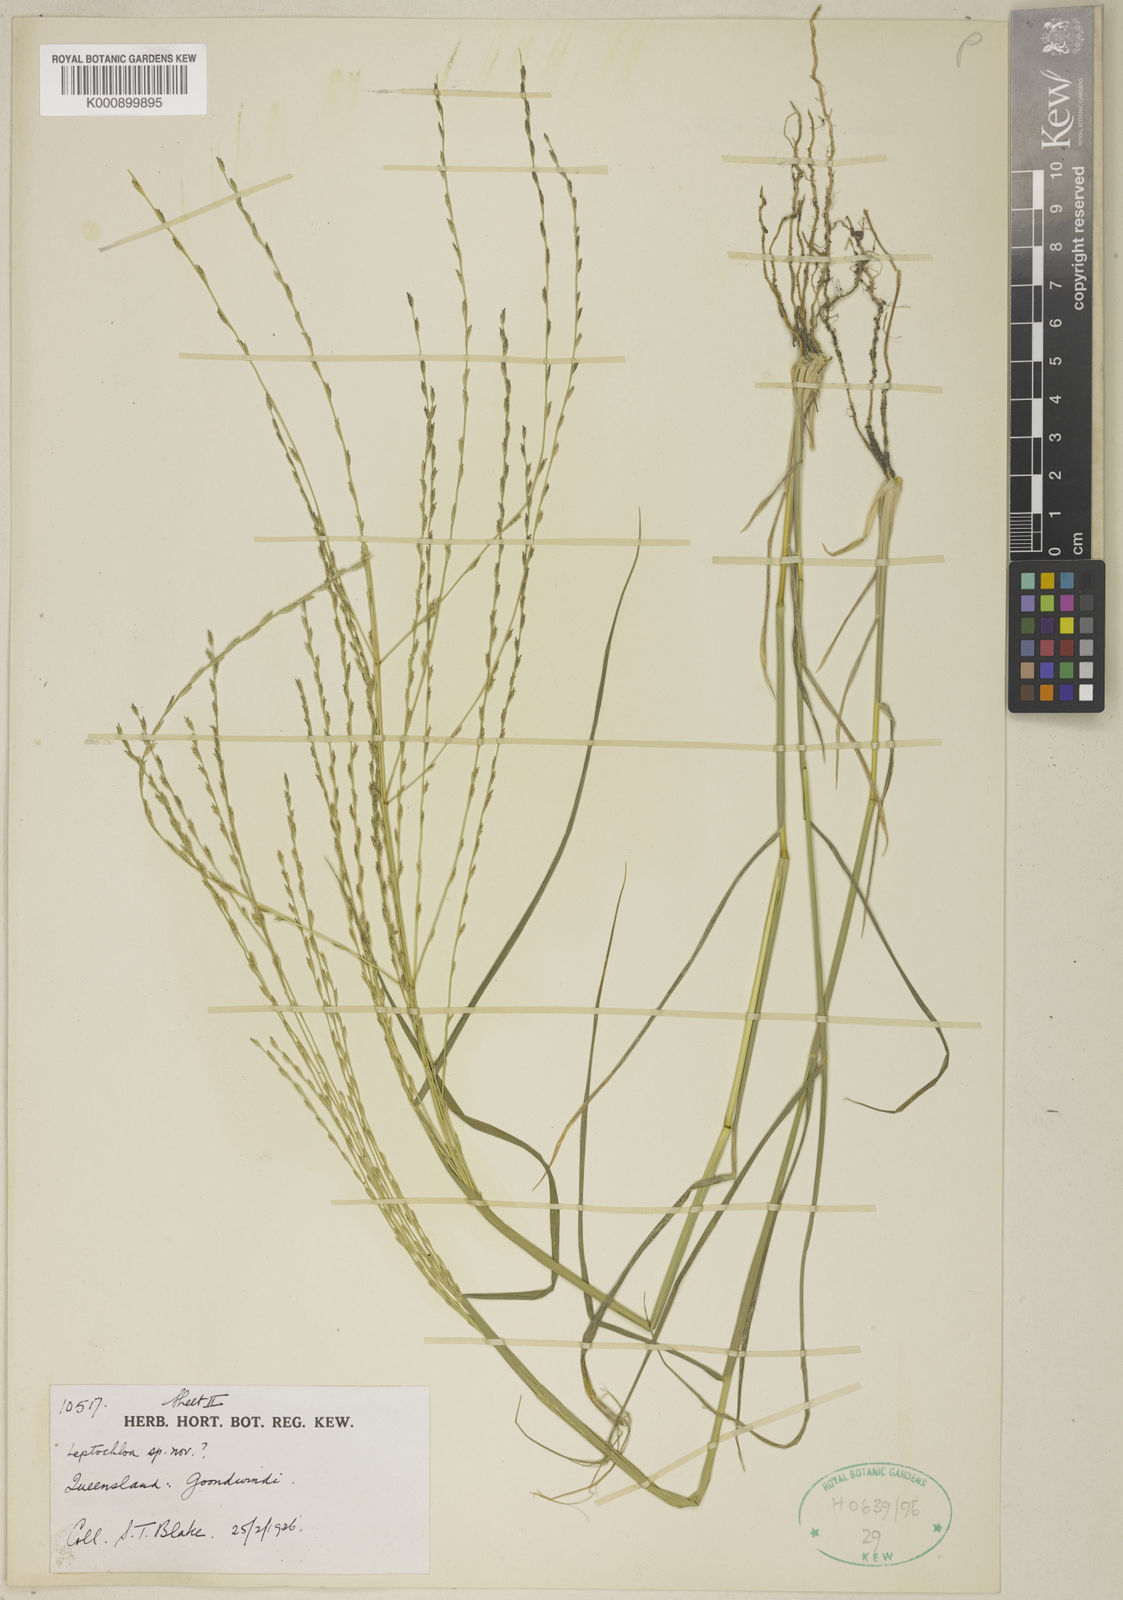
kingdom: Plantae
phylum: Tracheophyta
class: Liliopsida
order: Poales
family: Poaceae
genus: Dinebra
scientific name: Dinebra divaricatissima
